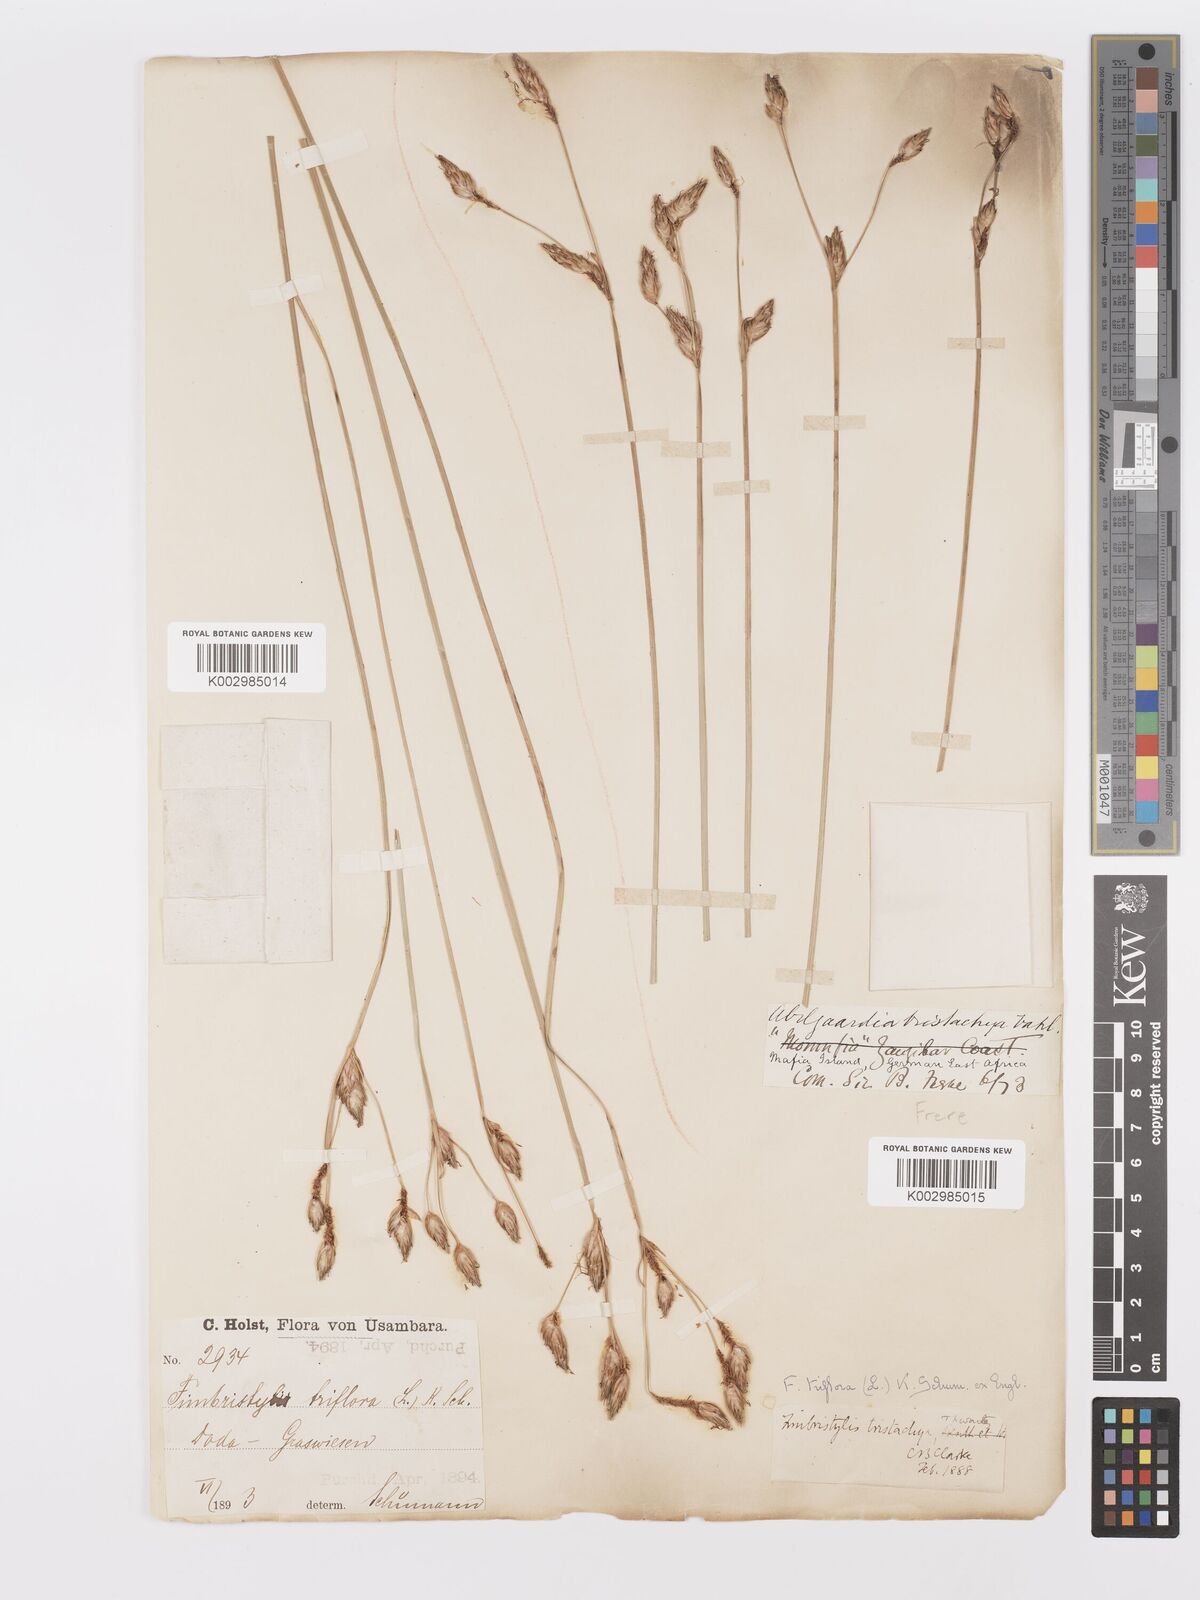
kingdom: Plantae
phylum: Tracheophyta
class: Liliopsida
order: Poales
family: Cyperaceae
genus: Abildgaardia
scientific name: Abildgaardia triflora
